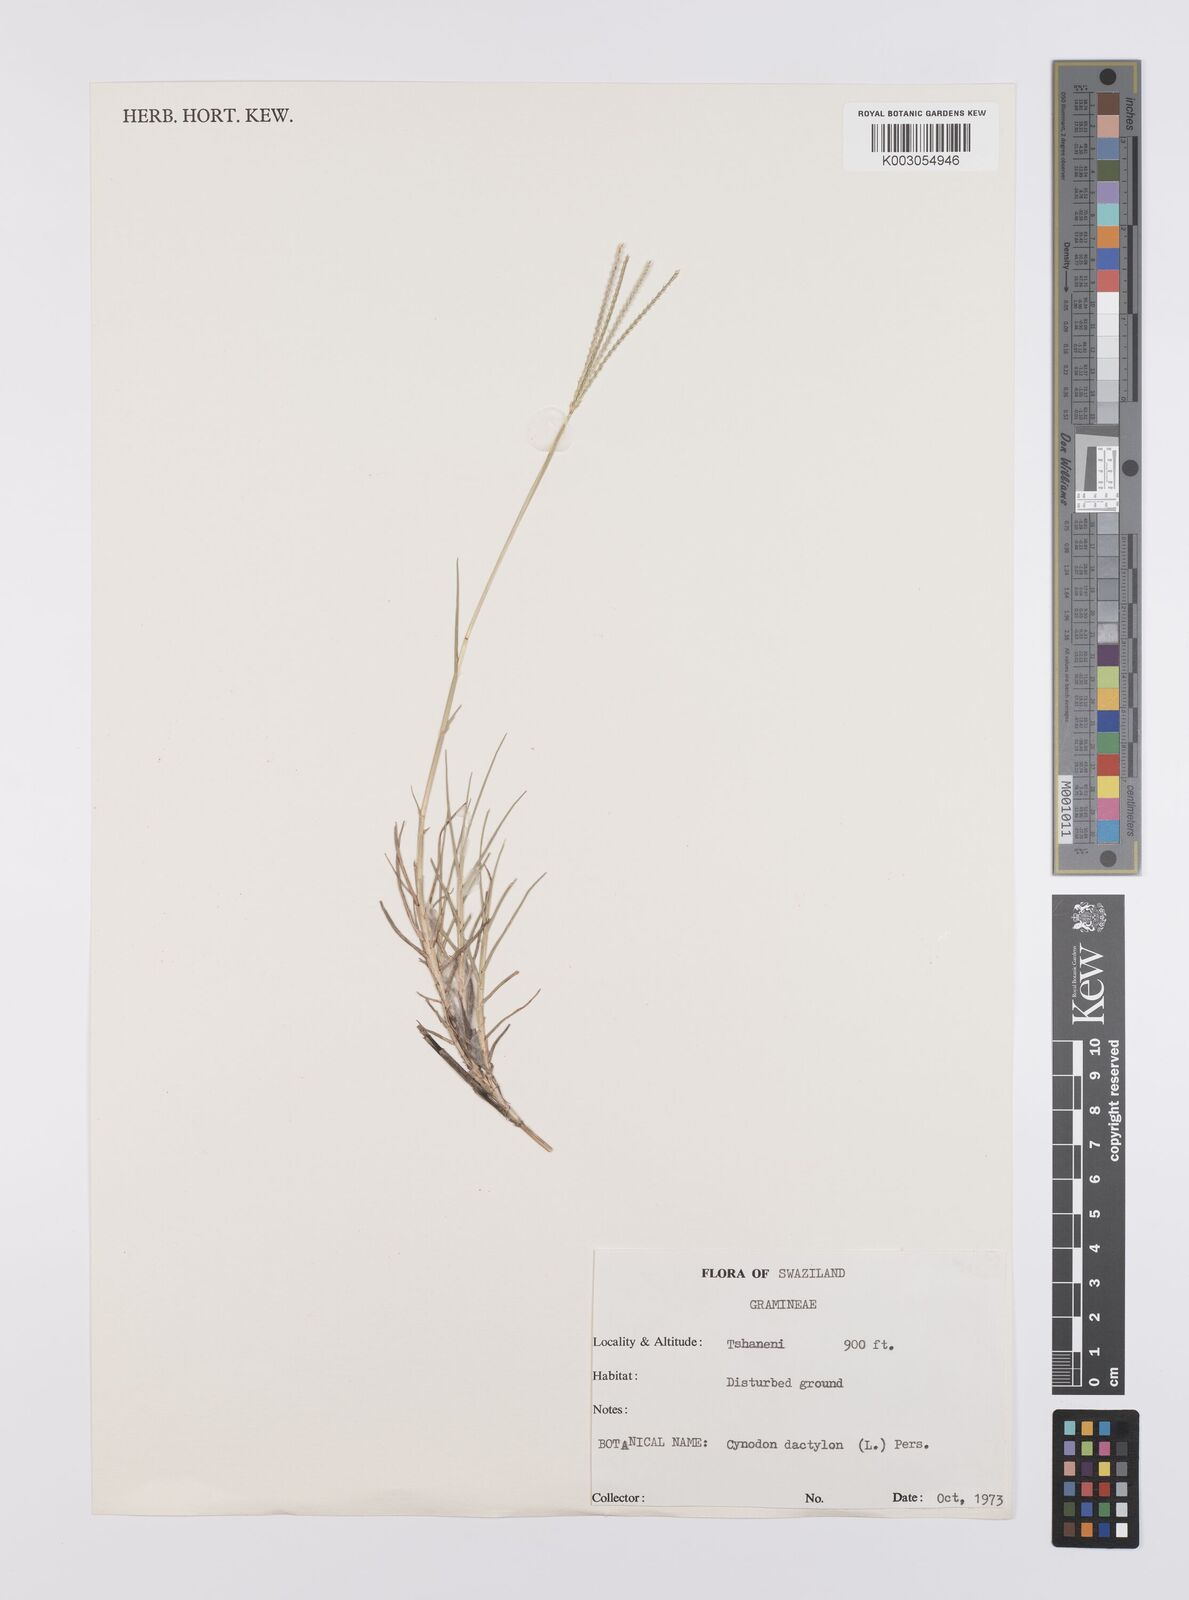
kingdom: Plantae
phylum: Tracheophyta
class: Liliopsida
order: Poales
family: Poaceae
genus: Cynodon
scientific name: Cynodon dactylon
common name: Bermuda grass
